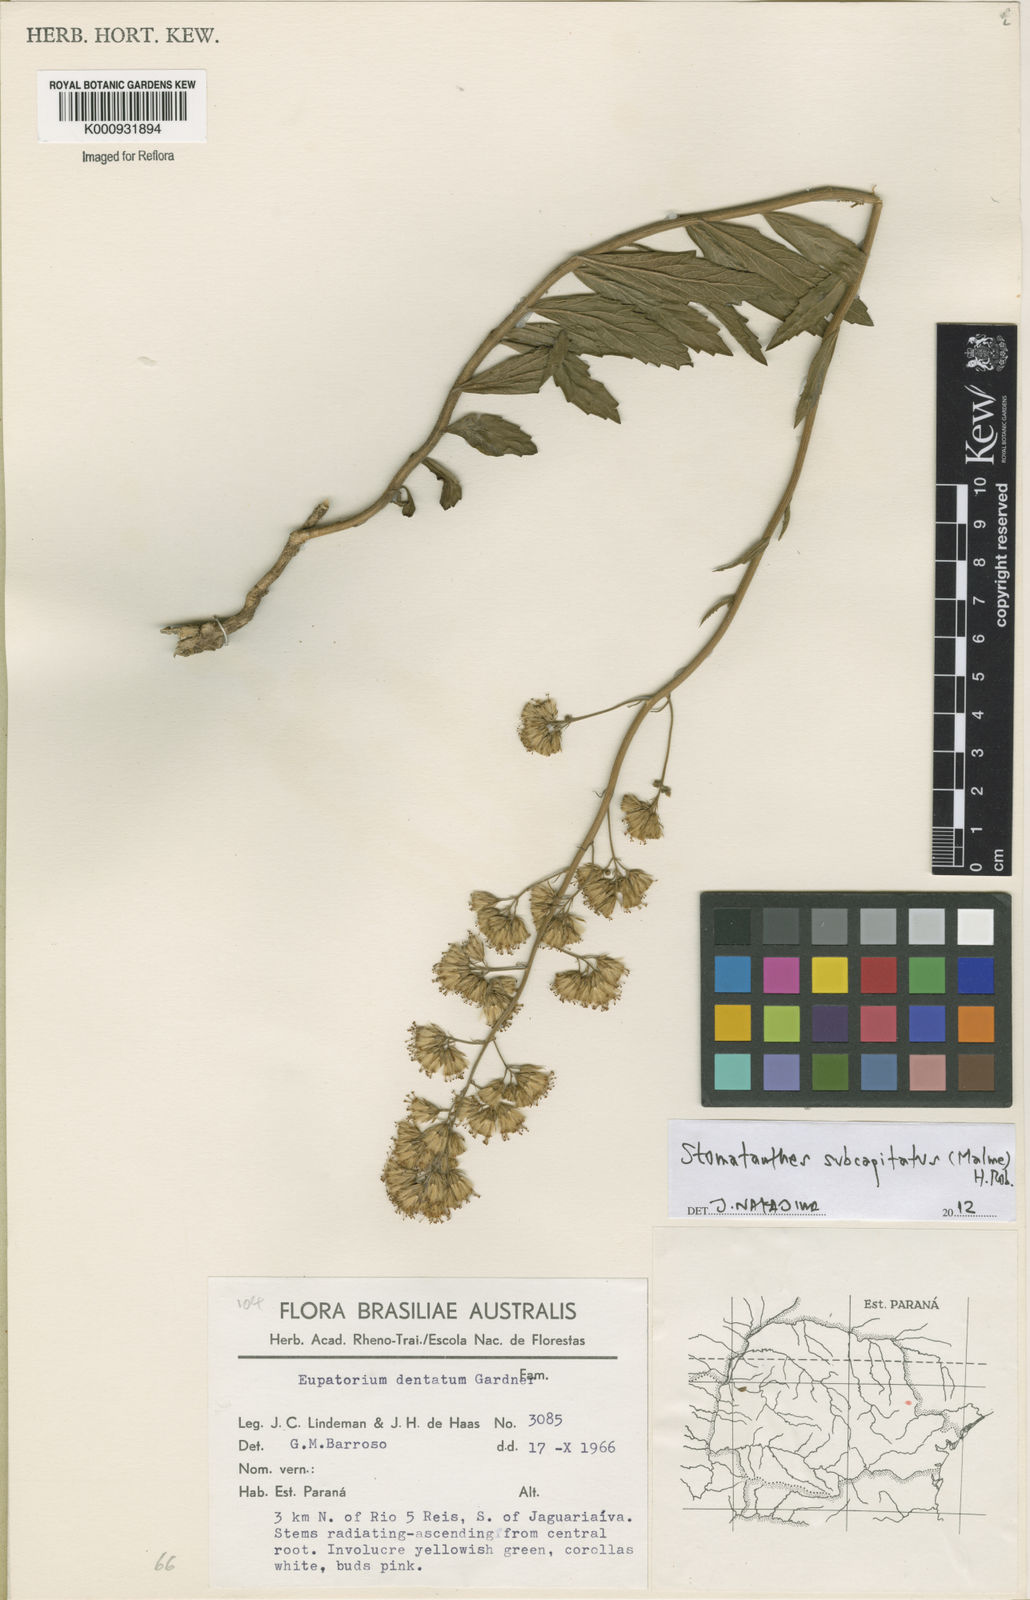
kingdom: Plantae
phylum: Tracheophyta
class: Magnoliopsida
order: Asterales
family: Asteraceae
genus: Stomatanthes
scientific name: Stomatanthes subcapitatus
